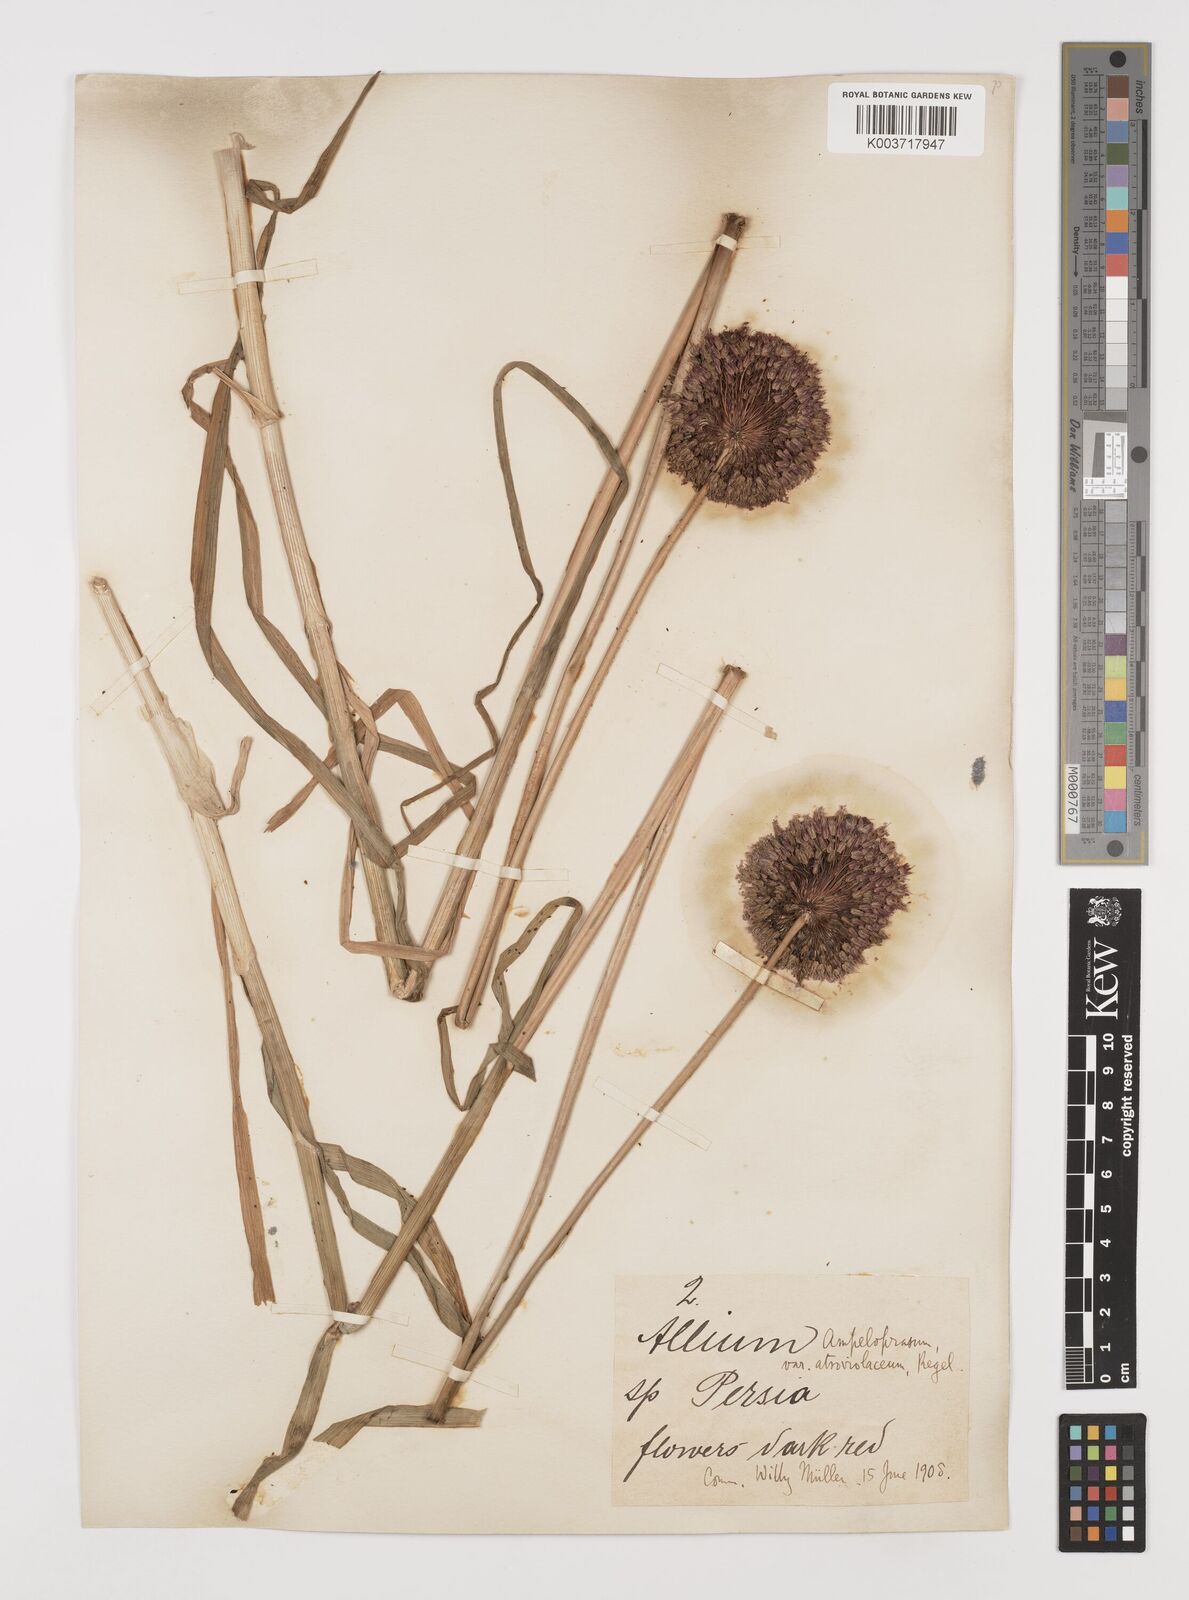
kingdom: Plantae
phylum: Tracheophyta
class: Liliopsida
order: Asparagales
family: Amaryllidaceae
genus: Allium
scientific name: Allium atroviolaceum
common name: Broadleaf wild leek
